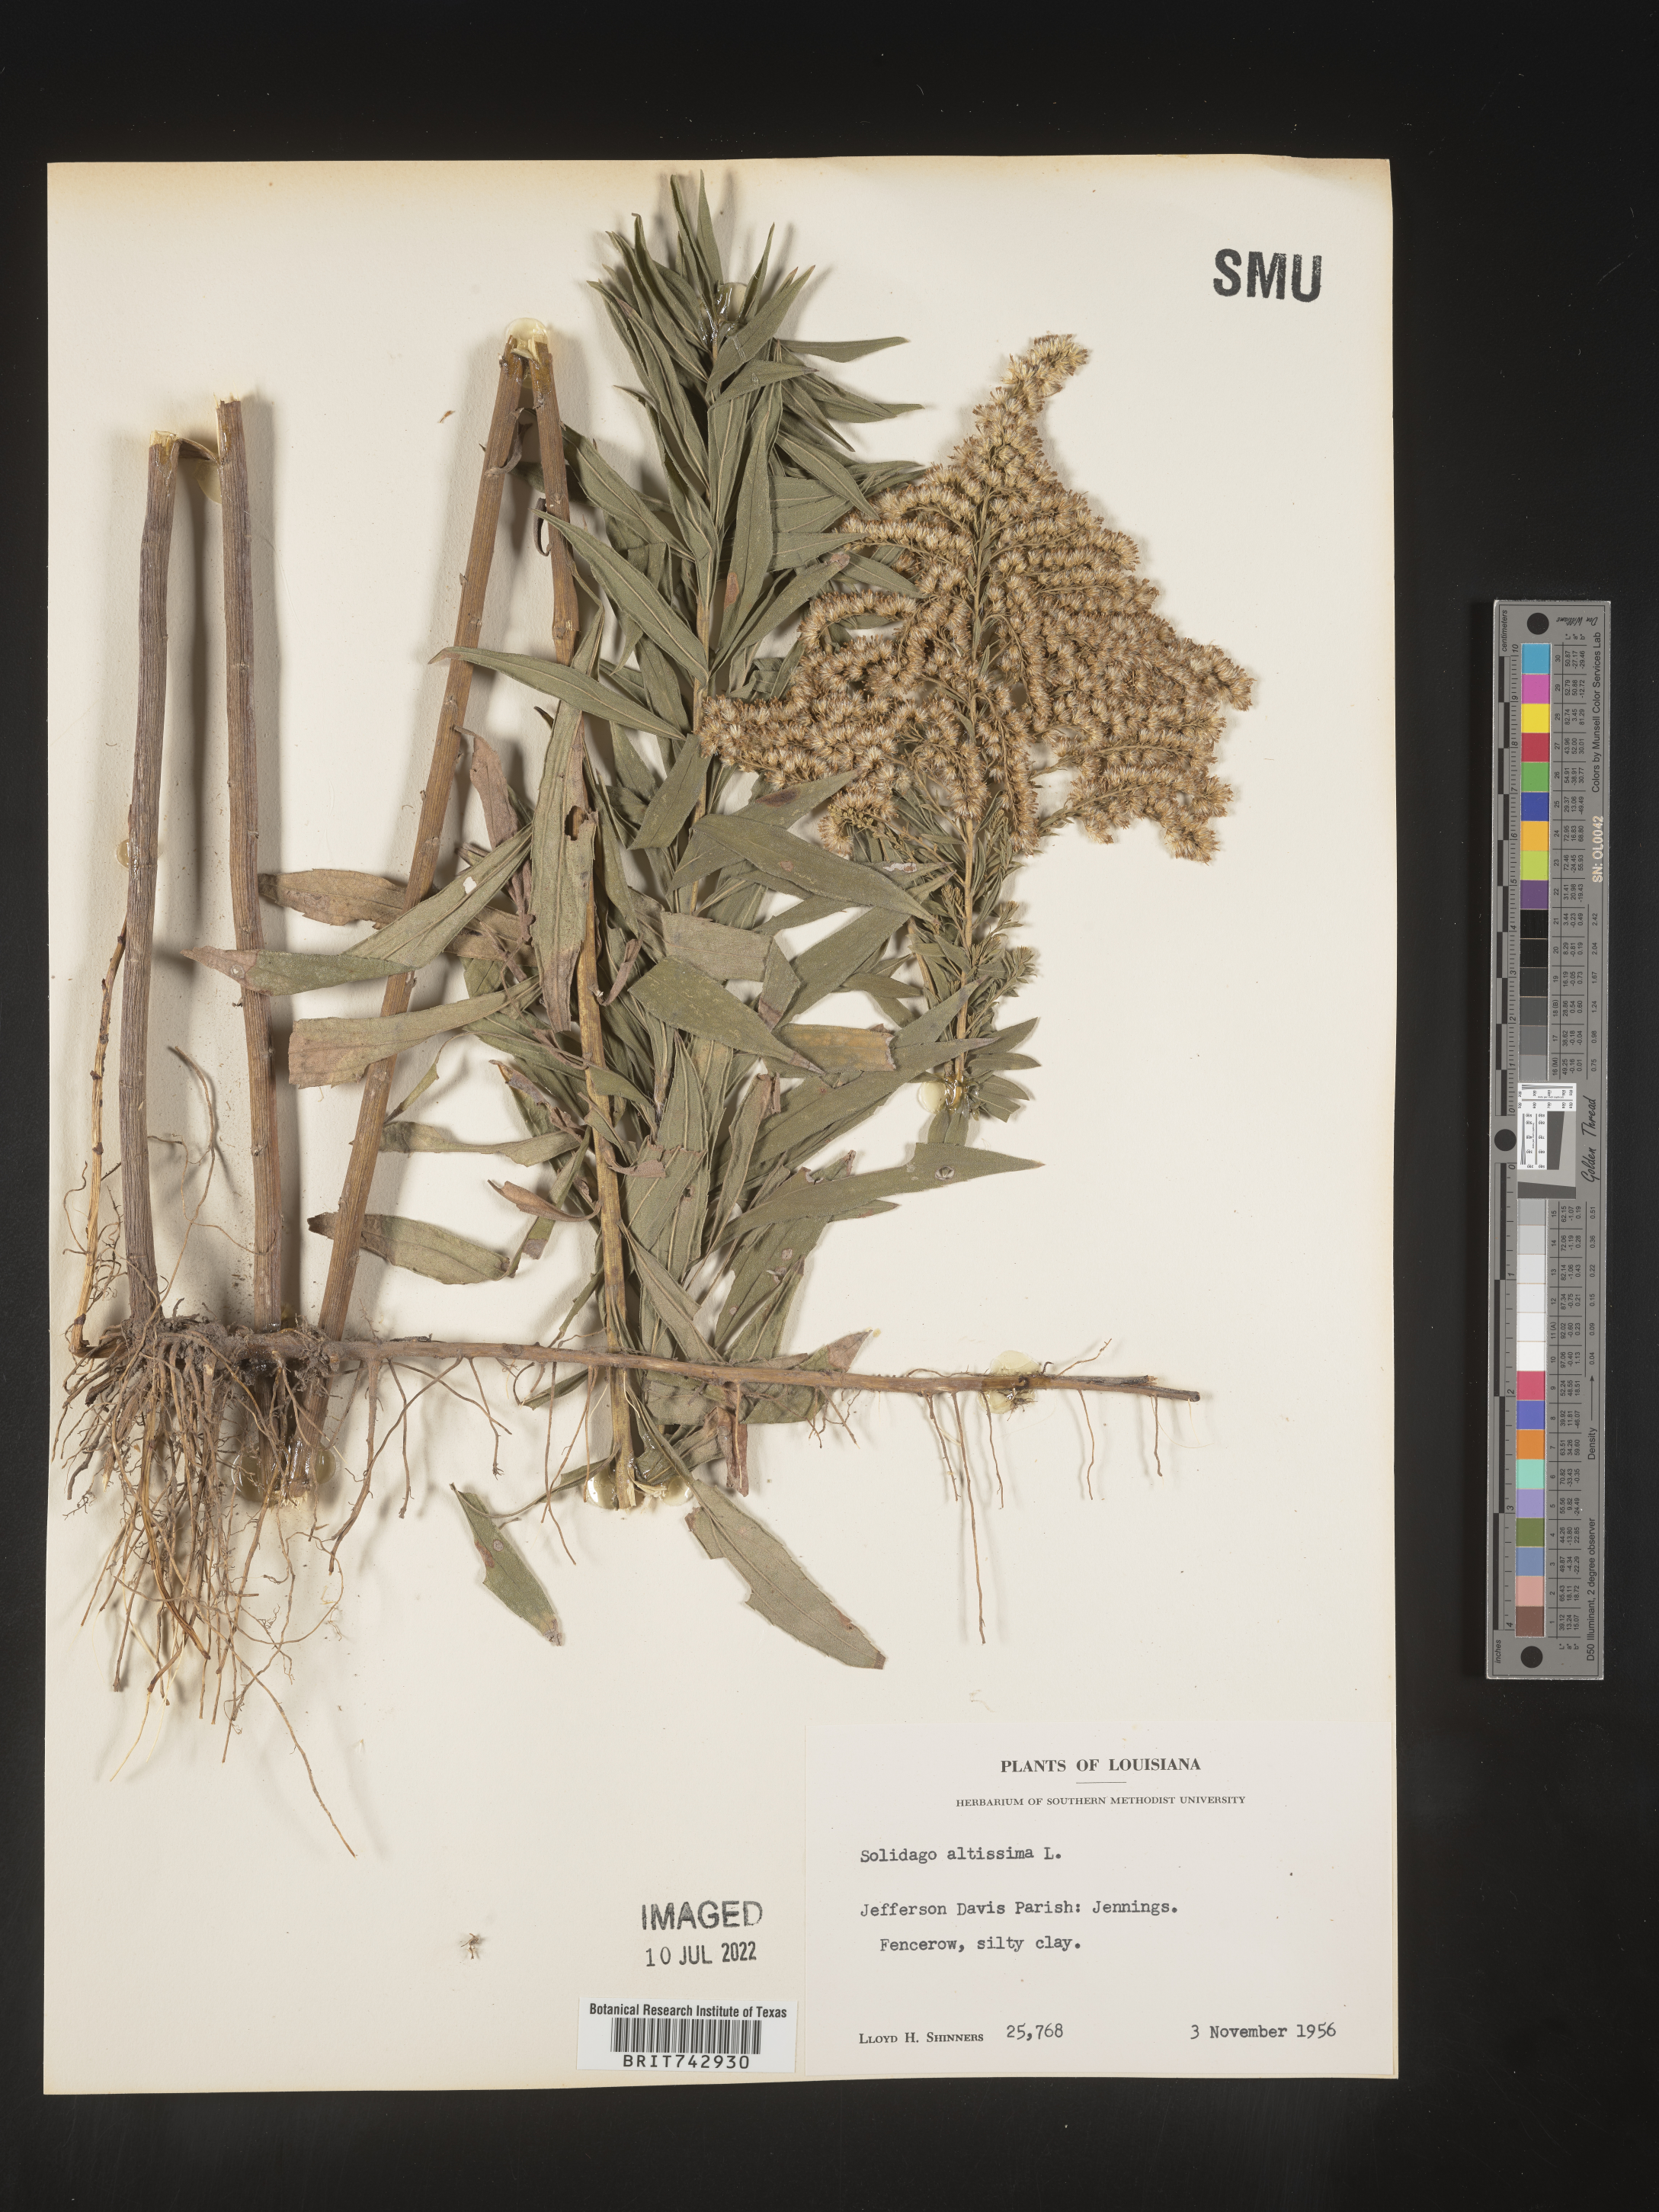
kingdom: Plantae
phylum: Tracheophyta
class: Magnoliopsida
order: Asterales
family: Asteraceae
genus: Solidago
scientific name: Solidago altissima
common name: Late goldenrod
